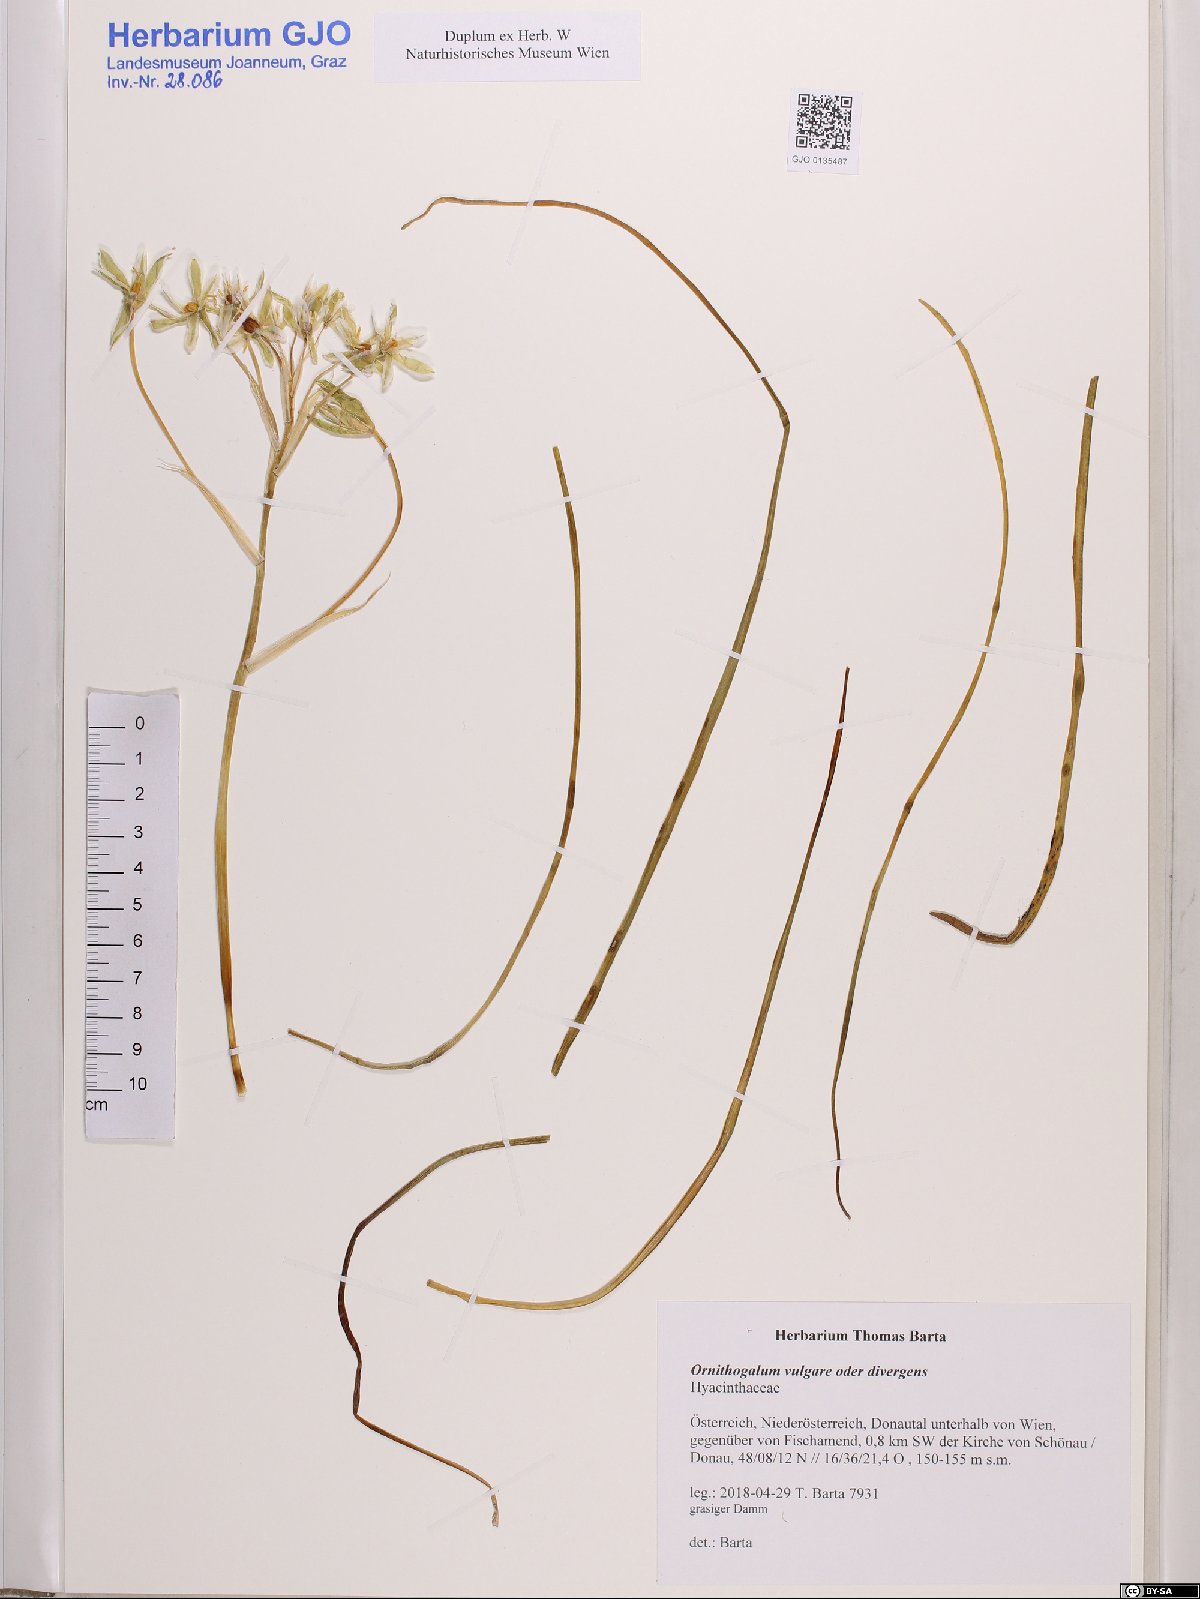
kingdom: Plantae
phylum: Tracheophyta
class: Liliopsida
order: Asparagales
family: Asparagaceae
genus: Ornithogalum
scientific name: Ornithogalum vulgare
